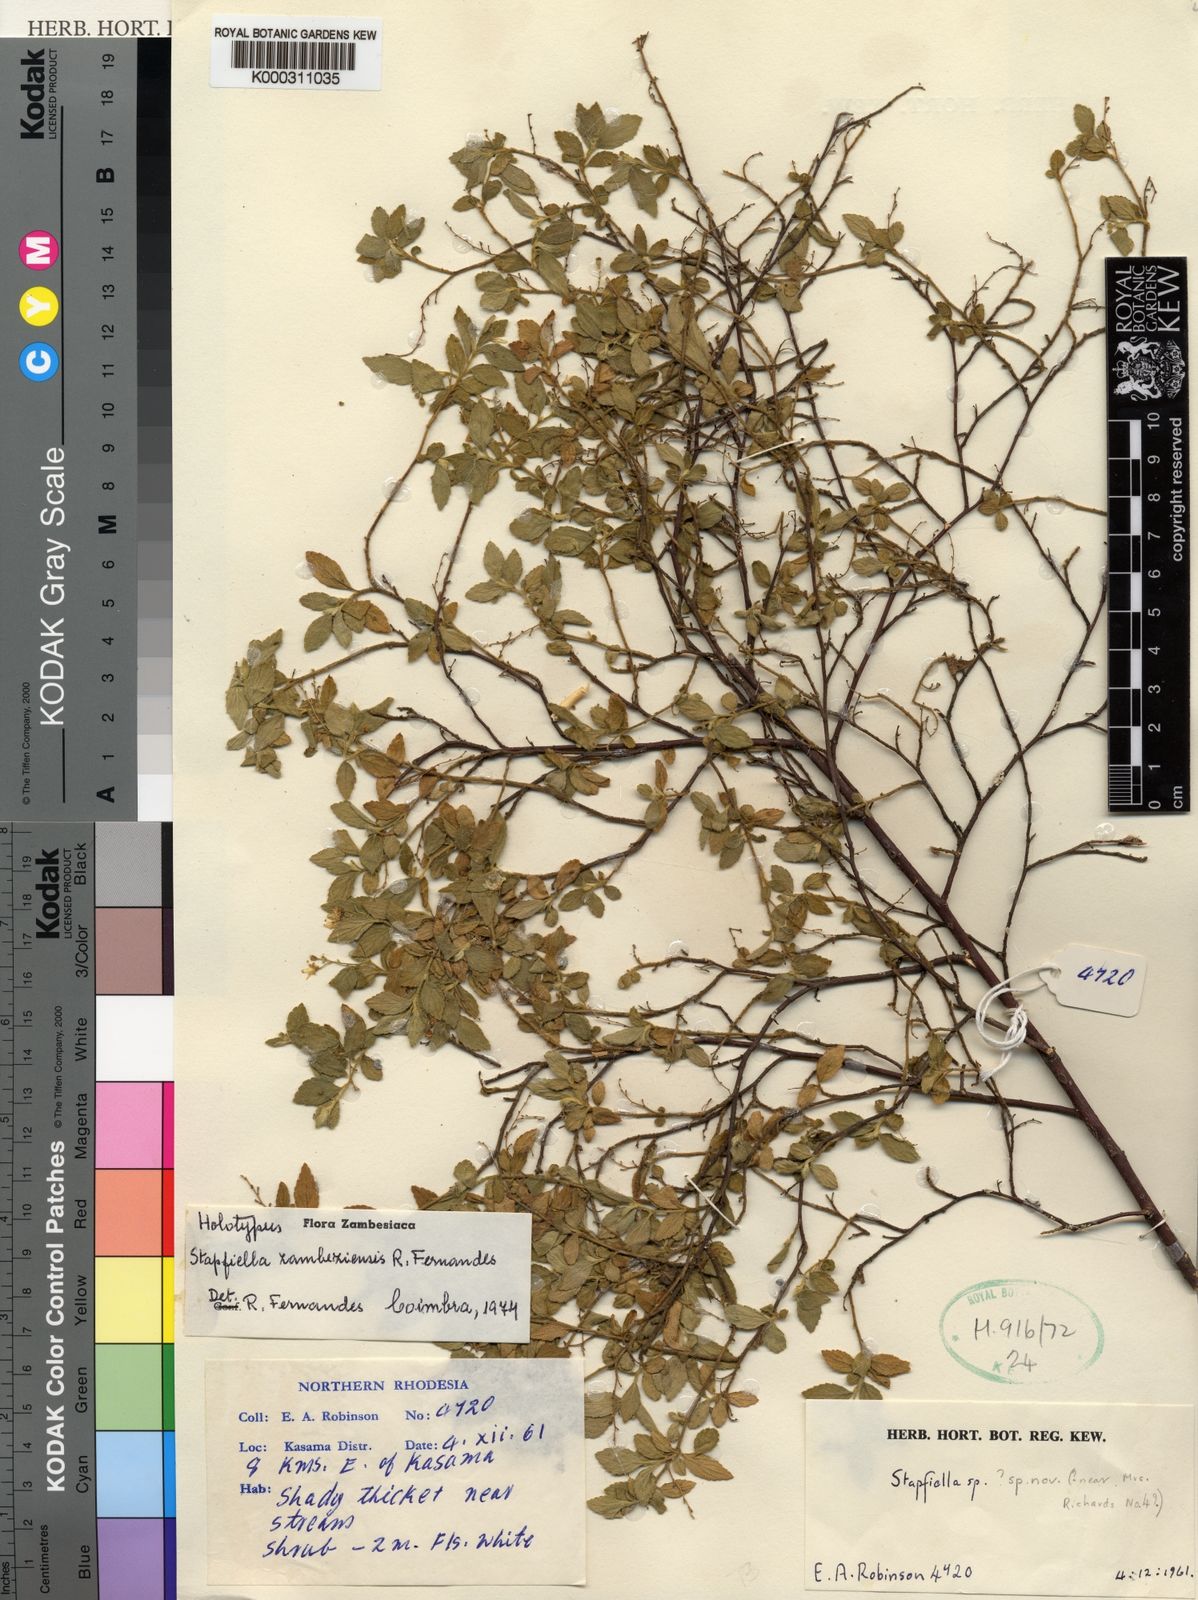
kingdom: Plantae
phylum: Tracheophyta
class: Magnoliopsida
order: Malpighiales
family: Turneraceae
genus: Stapfiella
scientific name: Stapfiella zambesiensis
